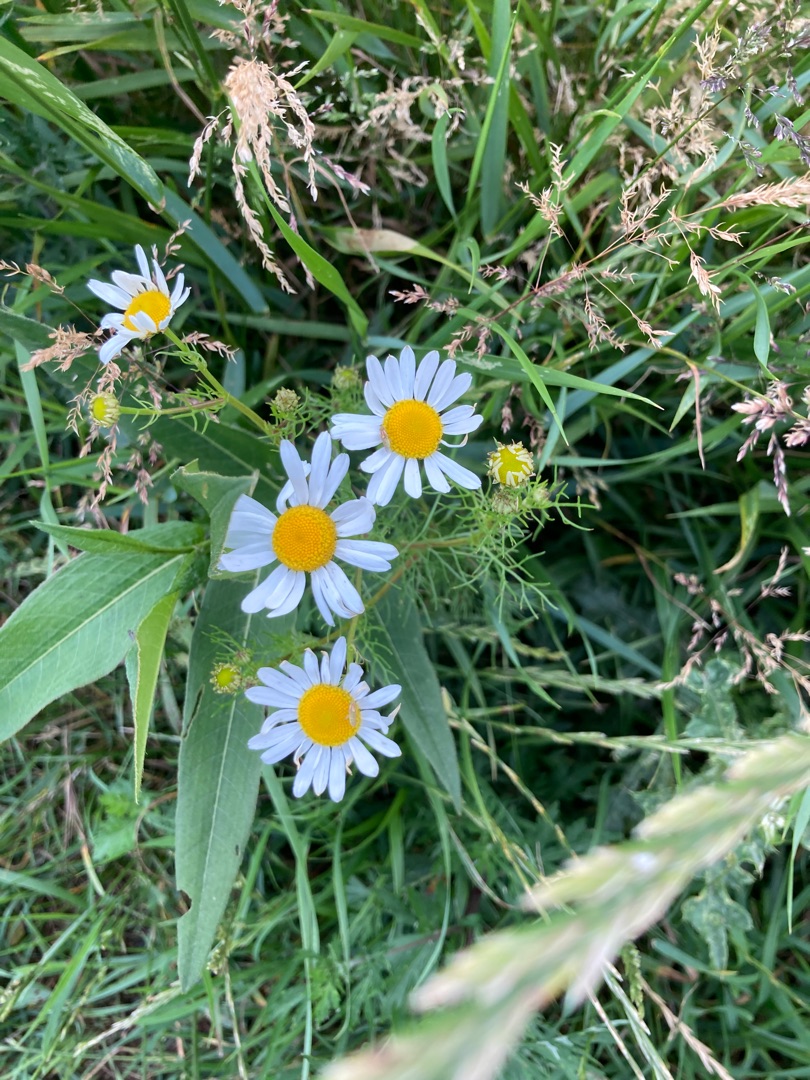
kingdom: Plantae
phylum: Tracheophyta
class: Magnoliopsida
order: Asterales
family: Asteraceae
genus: Tripleurospermum
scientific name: Tripleurospermum inodorum
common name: Lugtløs kamille
